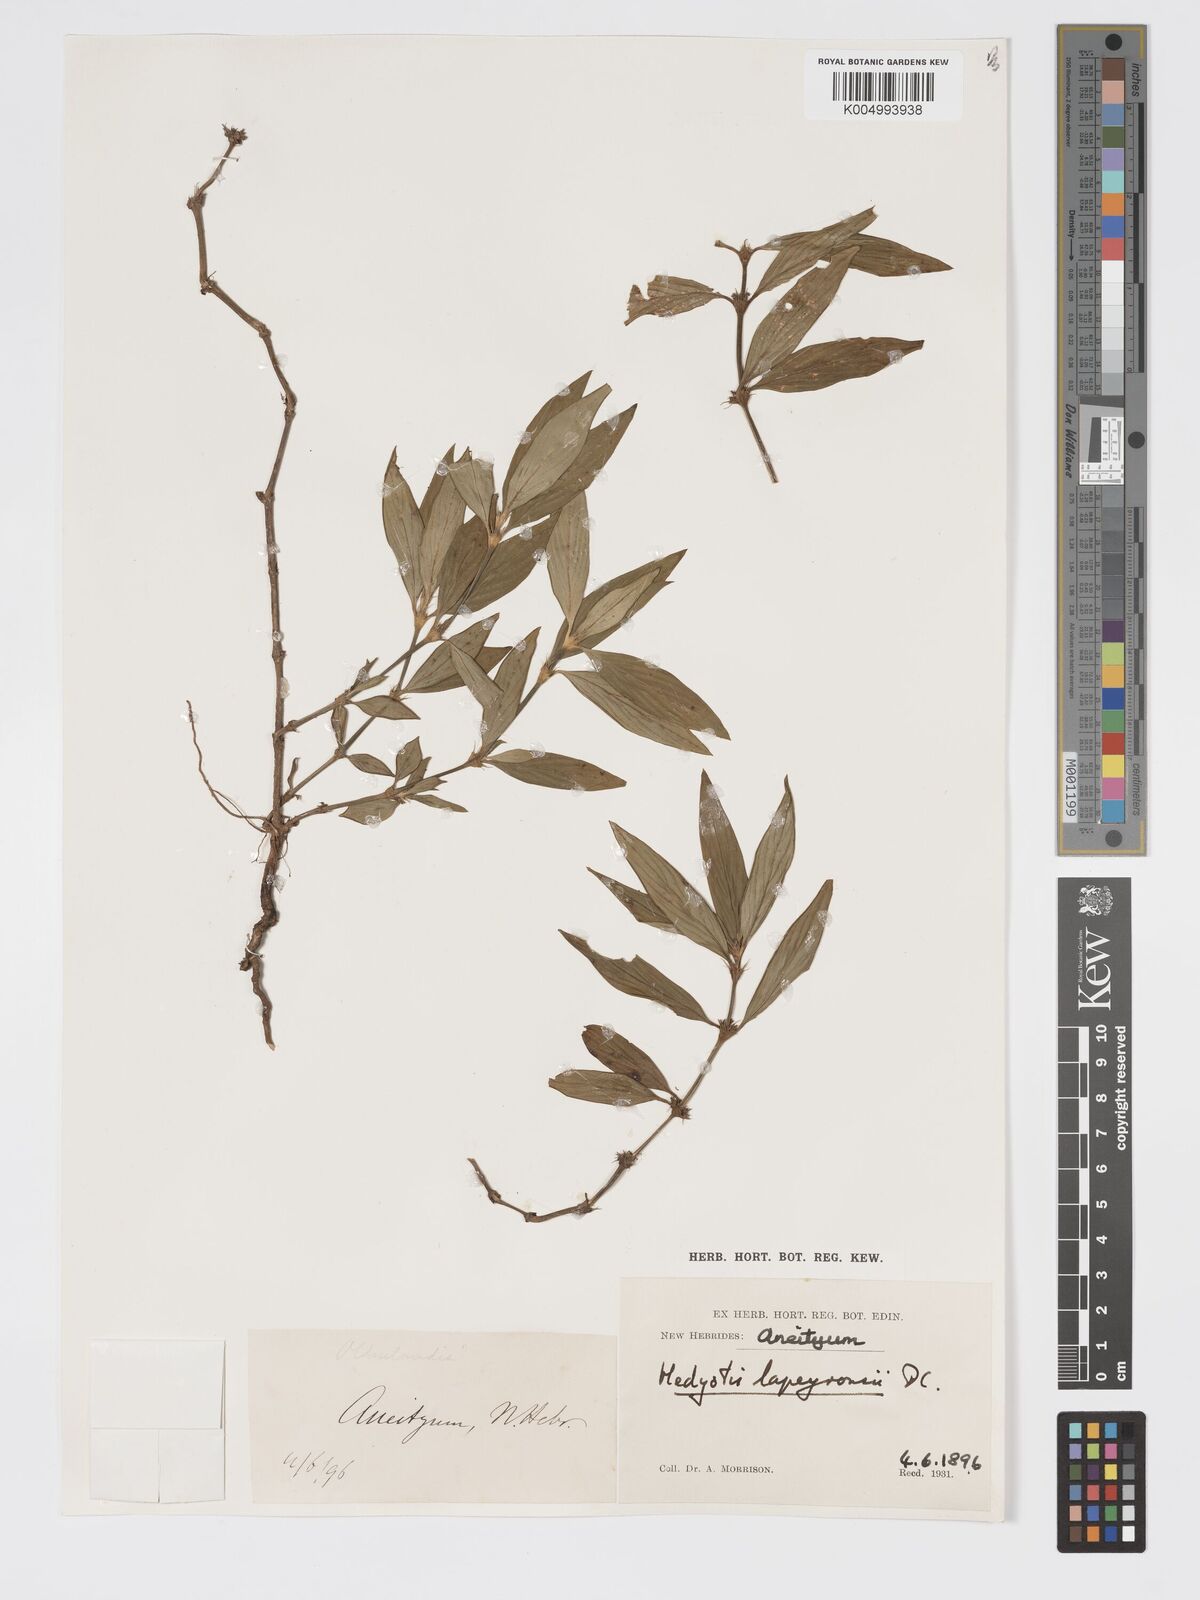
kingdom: Plantae
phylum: Tracheophyta
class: Magnoliopsida
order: Gentianales
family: Rubiaceae
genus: Exallage
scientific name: Exallage lapeyrousei
